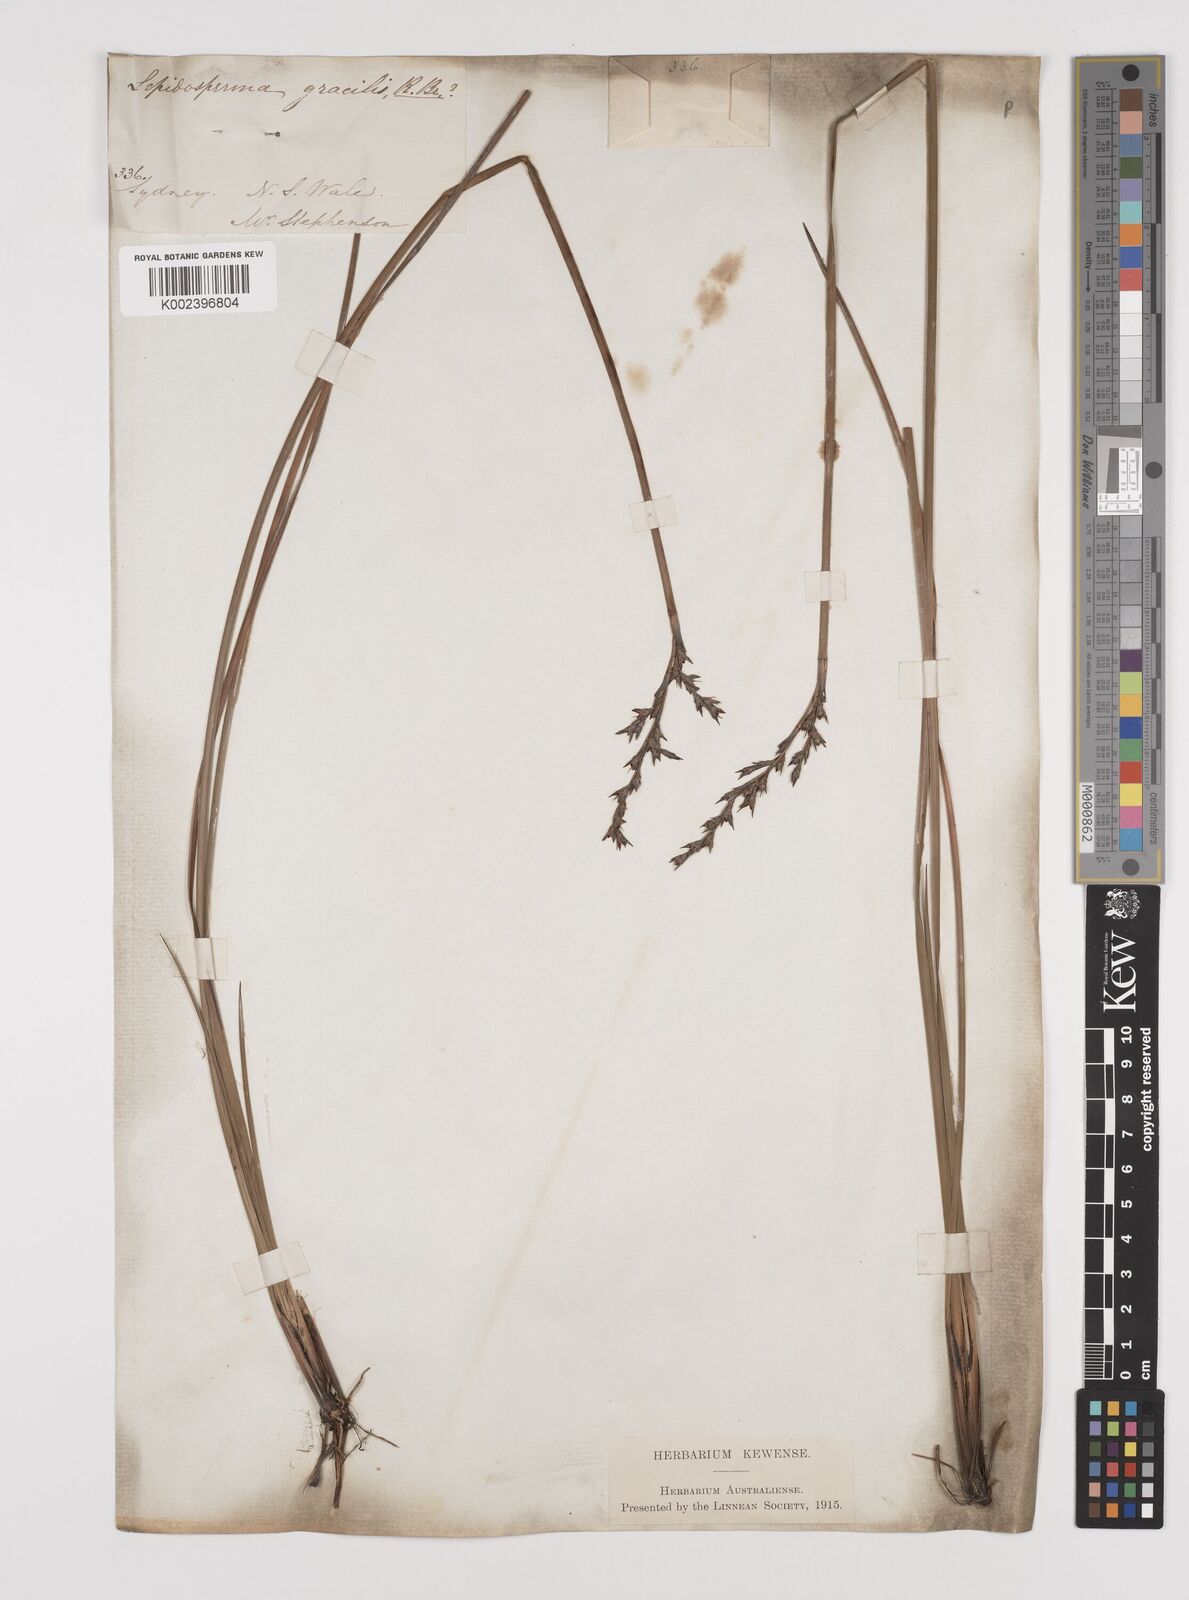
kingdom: Plantae
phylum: Tracheophyta
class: Liliopsida
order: Poales
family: Cyperaceae
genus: Lepidosperma
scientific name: Lepidosperma laterale
